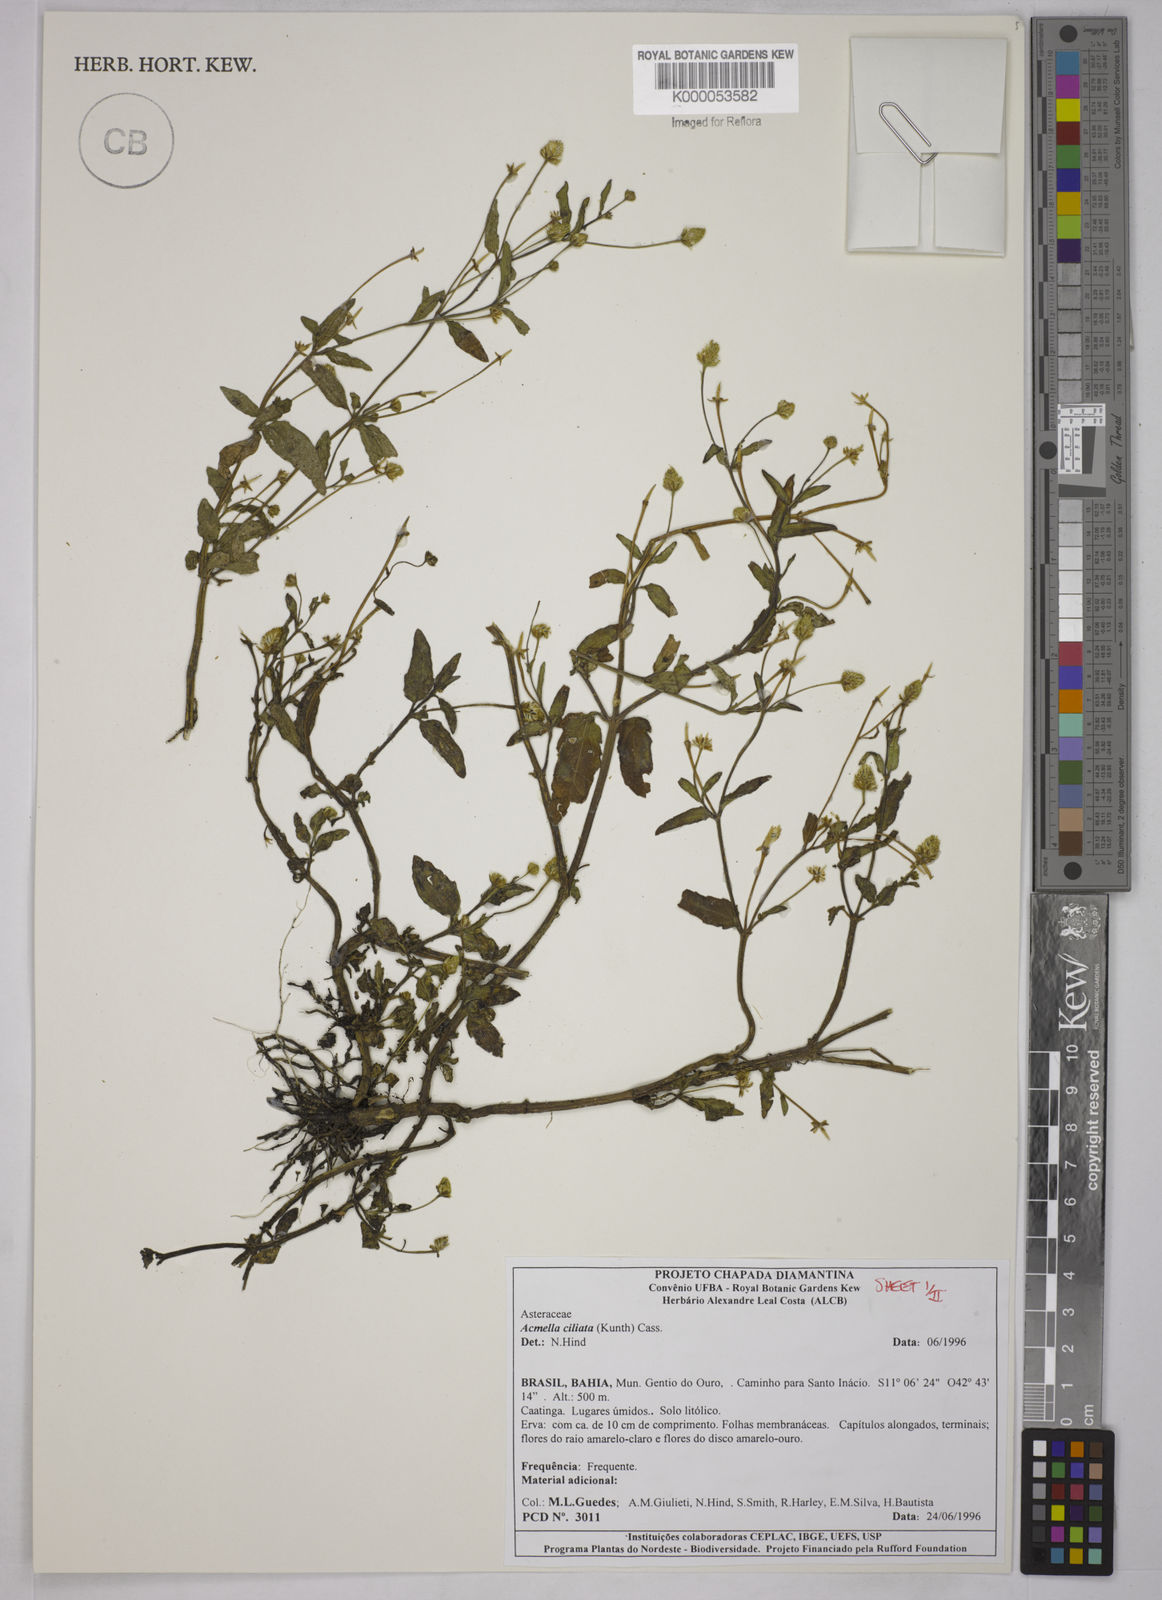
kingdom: Plantae
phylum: Tracheophyta
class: Magnoliopsida
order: Asterales
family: Asteraceae
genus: Acmella
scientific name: Acmella ciliata
